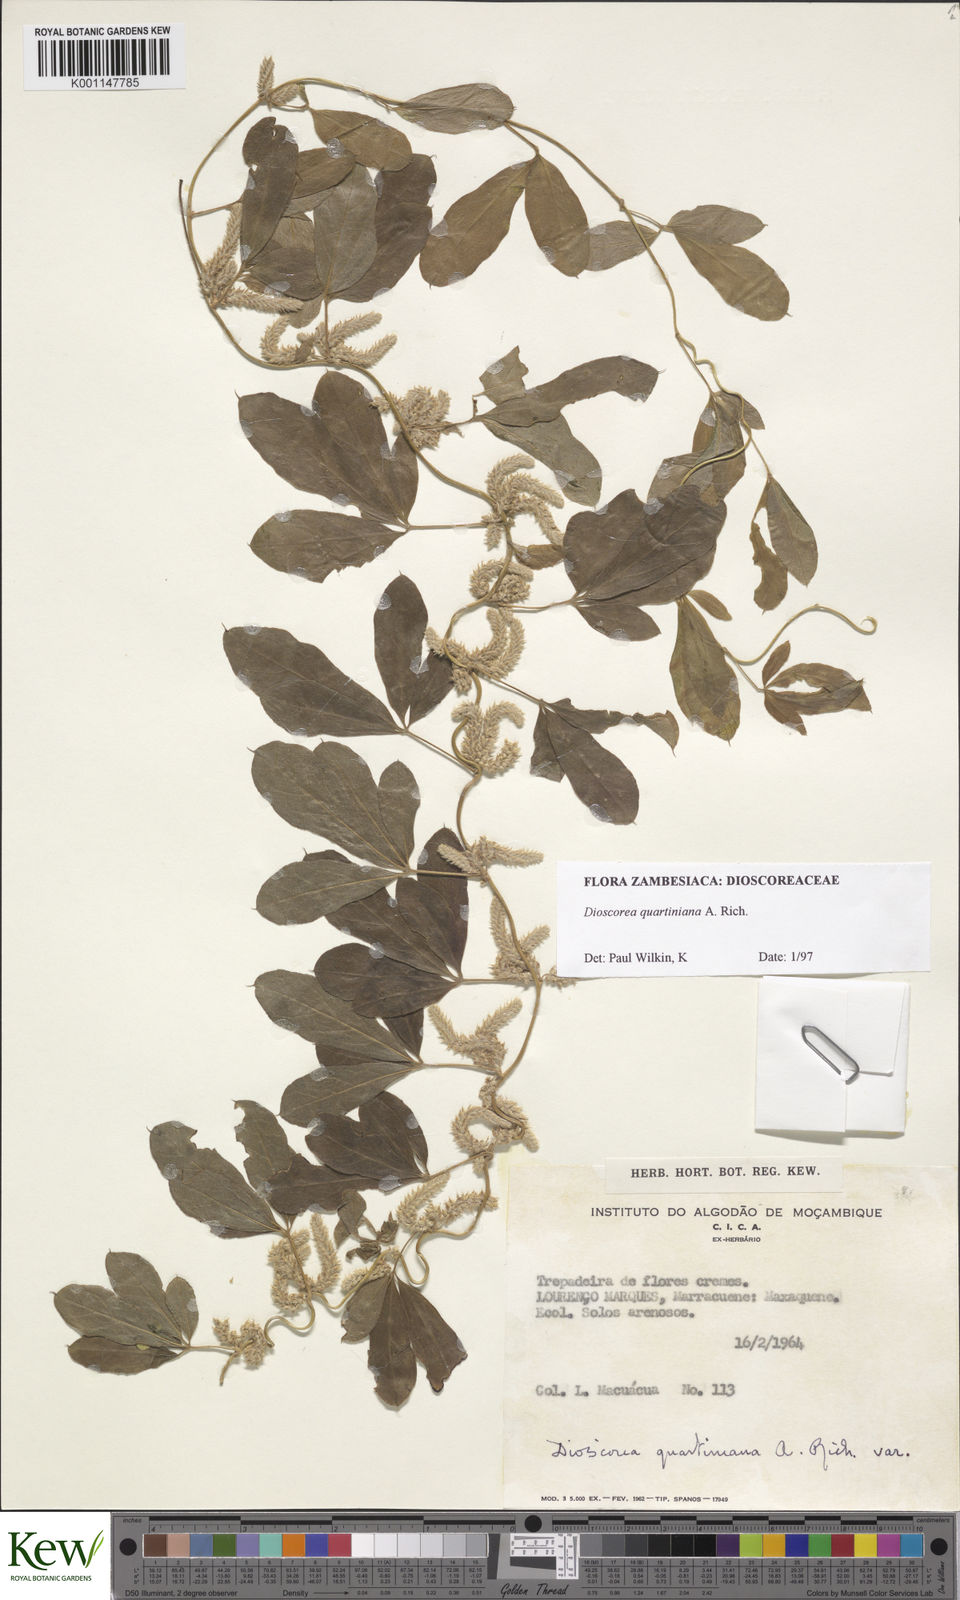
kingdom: Plantae
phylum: Tracheophyta
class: Liliopsida
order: Dioscoreales
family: Dioscoreaceae
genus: Dioscorea
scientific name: Dioscorea quartiniana
